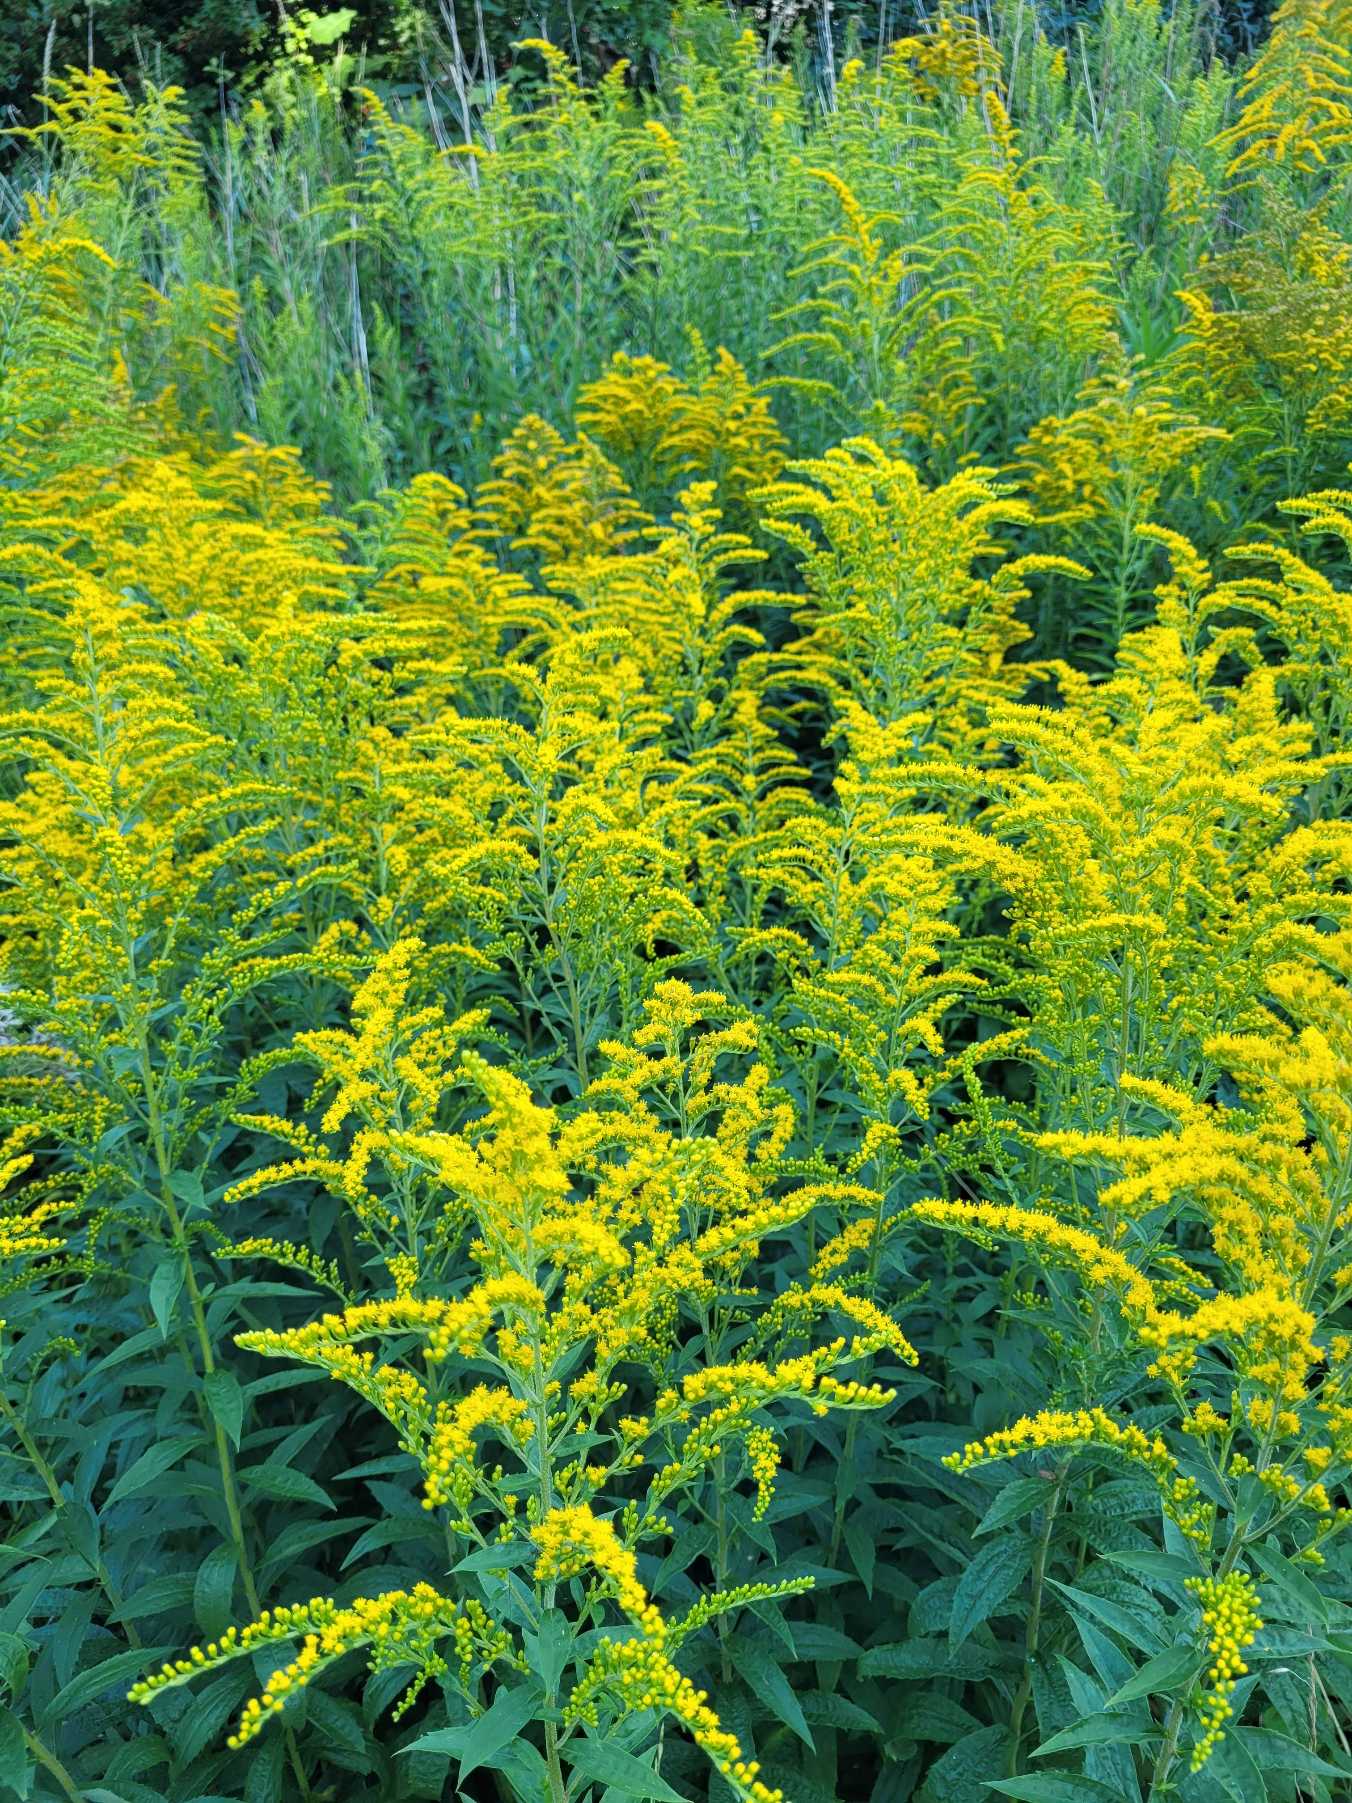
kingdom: Plantae
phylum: Tracheophyta
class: Magnoliopsida
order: Asterales
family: Asteraceae
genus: Solidago
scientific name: Solidago canadensis
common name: Kanadisk gyldenris
